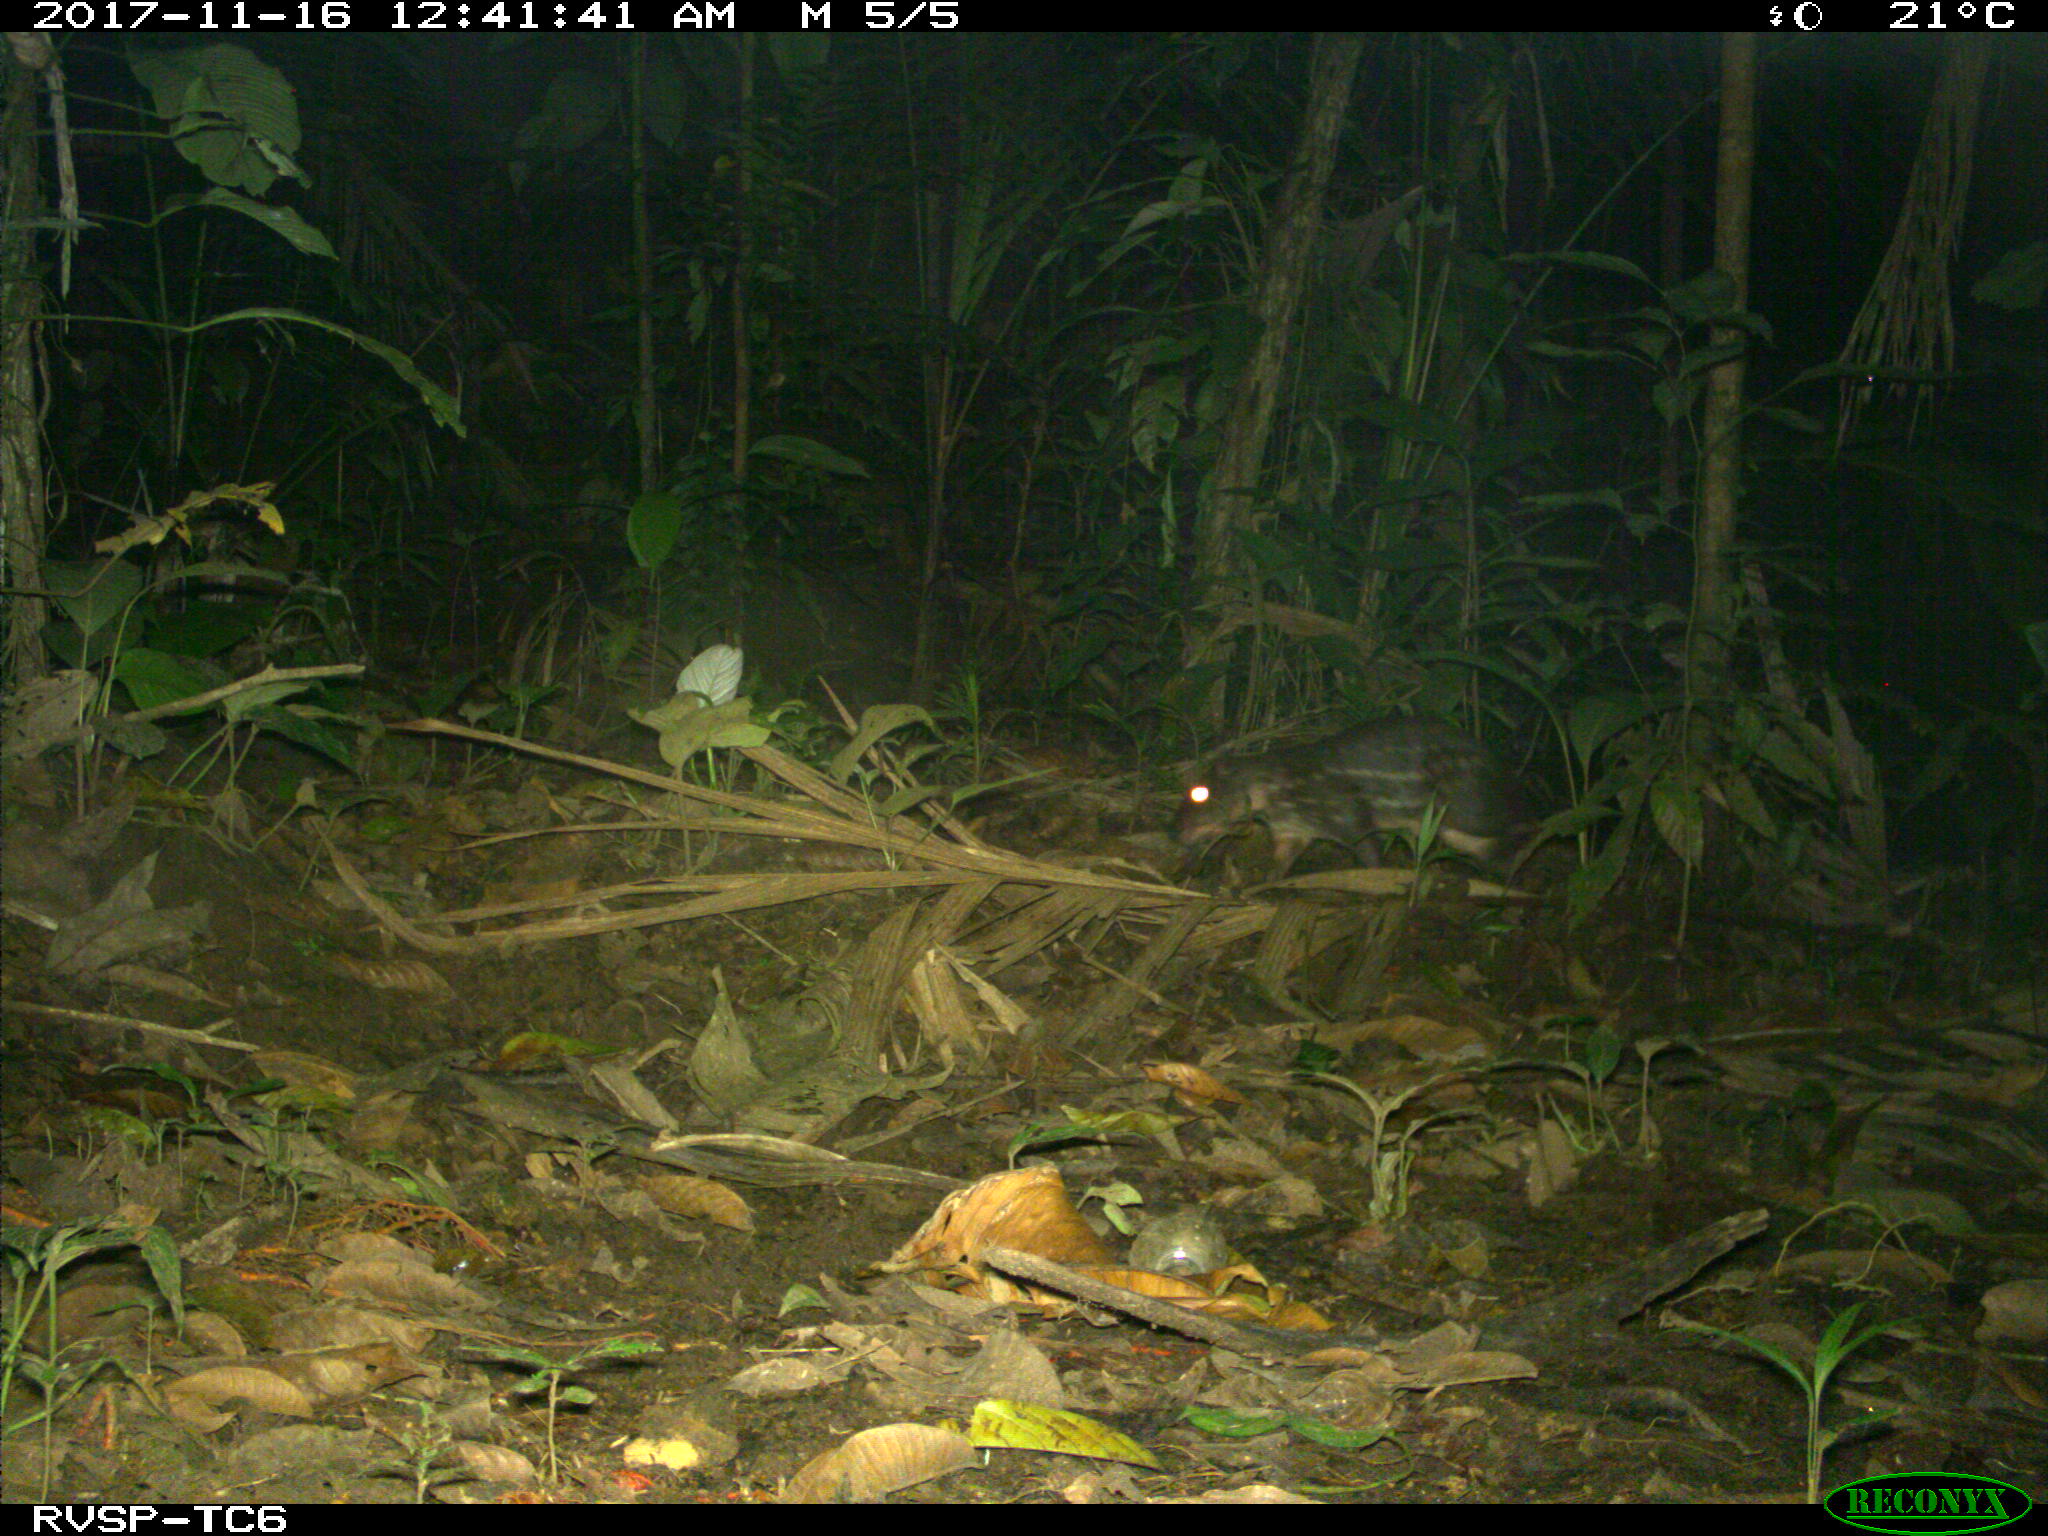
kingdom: Animalia
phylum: Chordata
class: Mammalia
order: Rodentia
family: Cuniculidae
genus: Cuniculus
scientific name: Cuniculus paca
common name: Lowland paca
